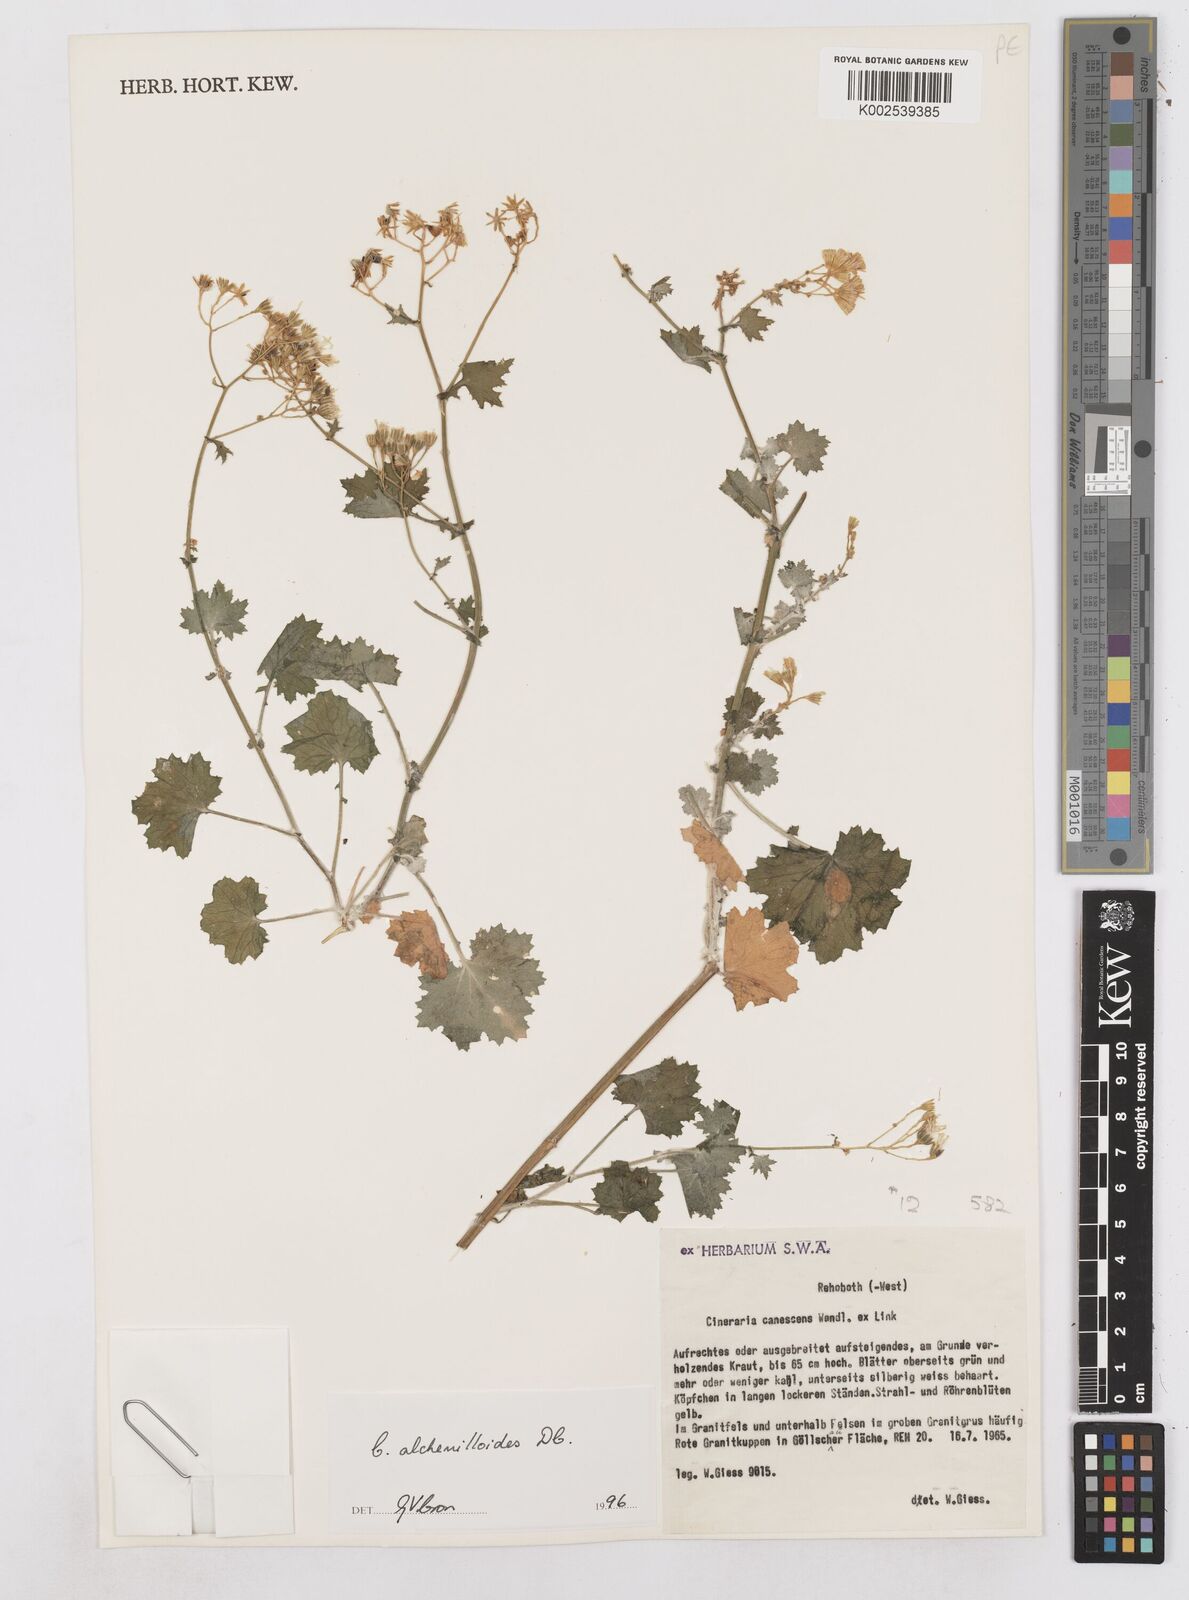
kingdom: Plantae
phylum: Tracheophyta
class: Magnoliopsida
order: Asterales
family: Asteraceae
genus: Cineraria
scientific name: Cineraria alchemilloides
